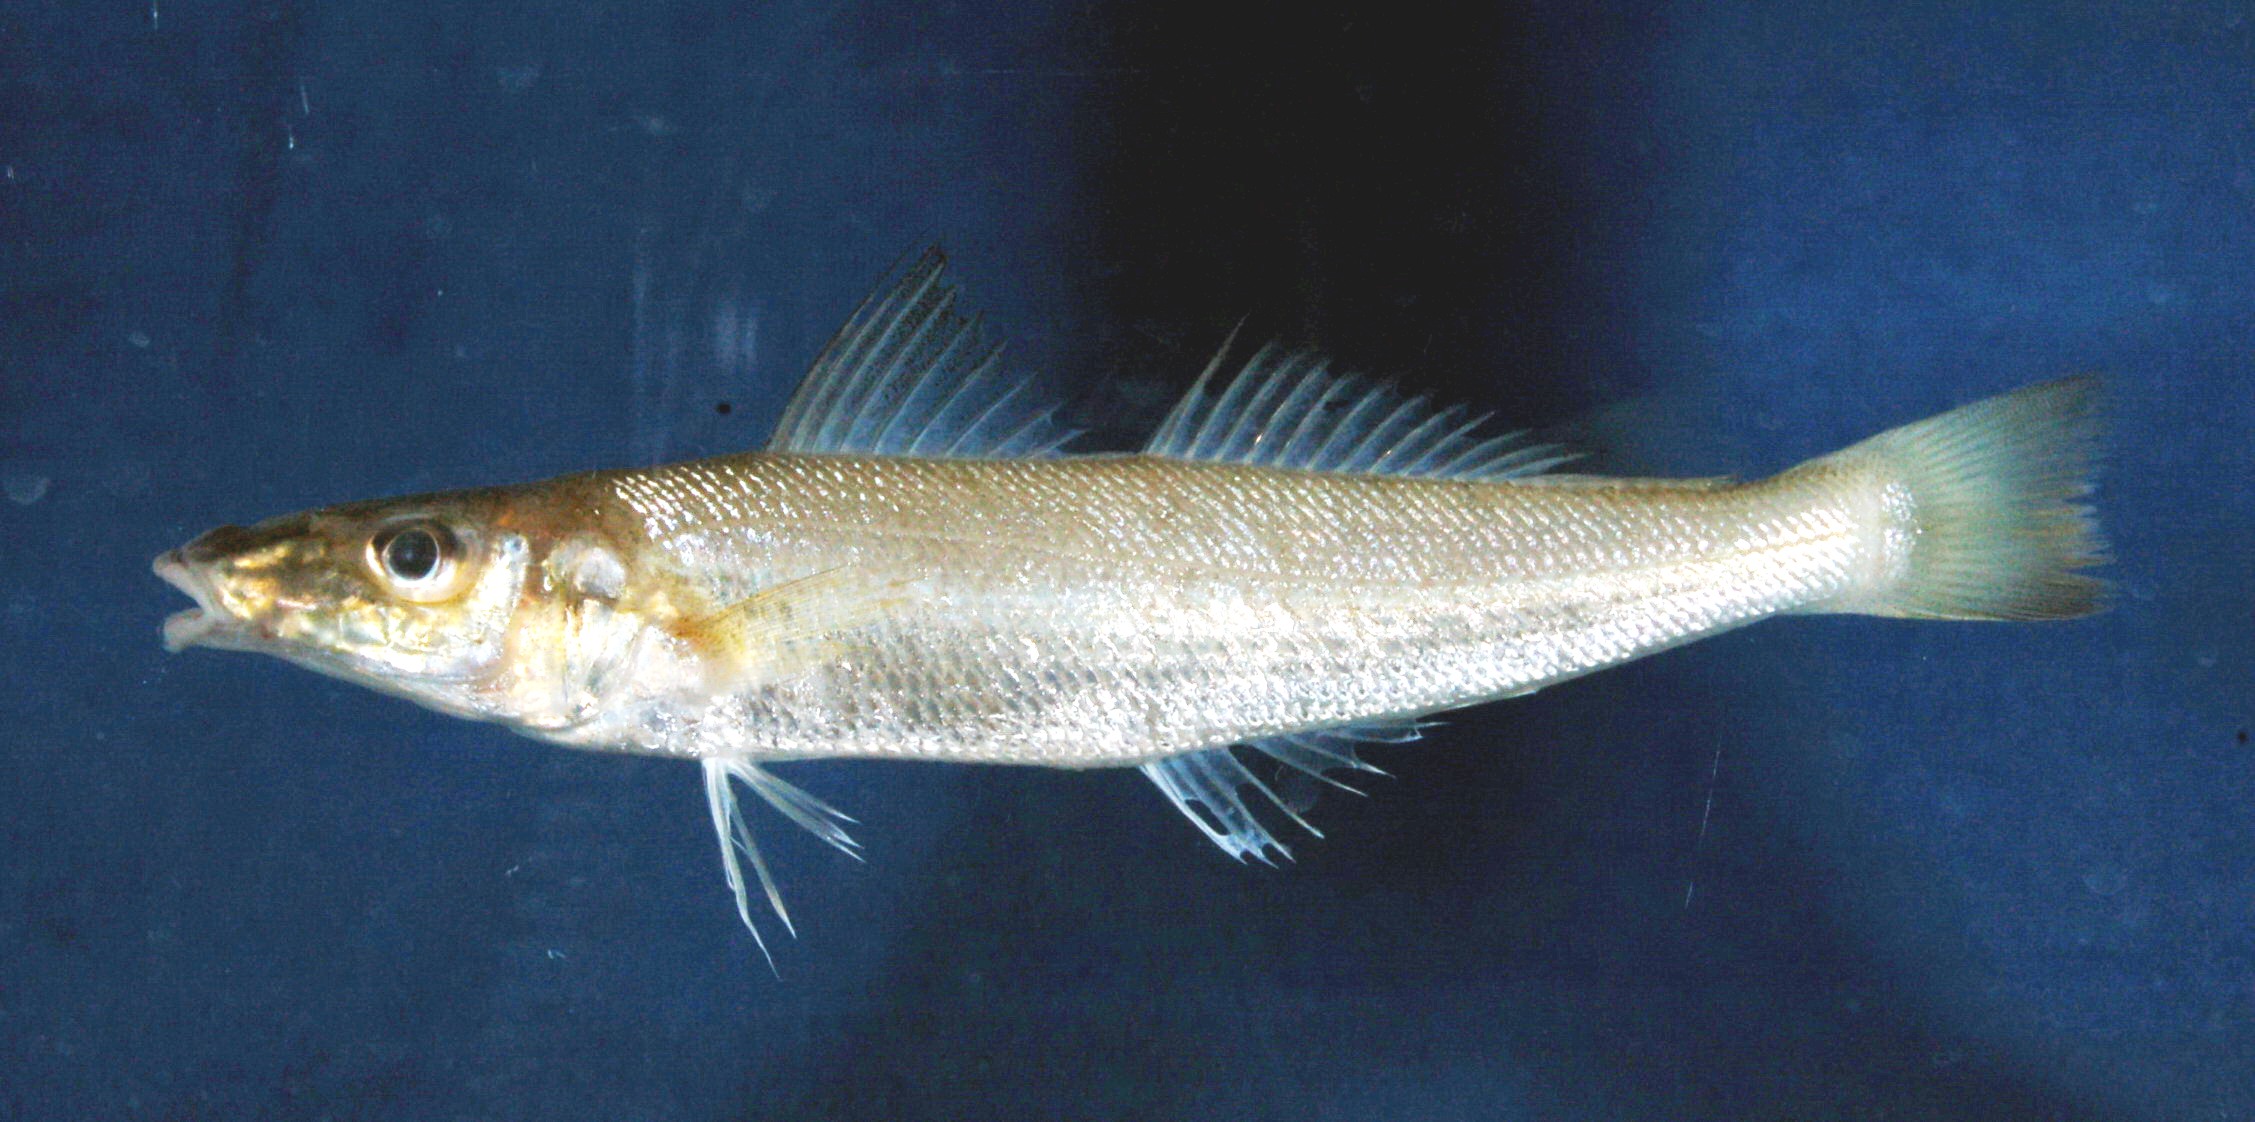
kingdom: Animalia
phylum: Chordata
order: Perciformes
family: Sillaginidae
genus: Sillago
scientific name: Sillago sihama
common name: Silver sillago
